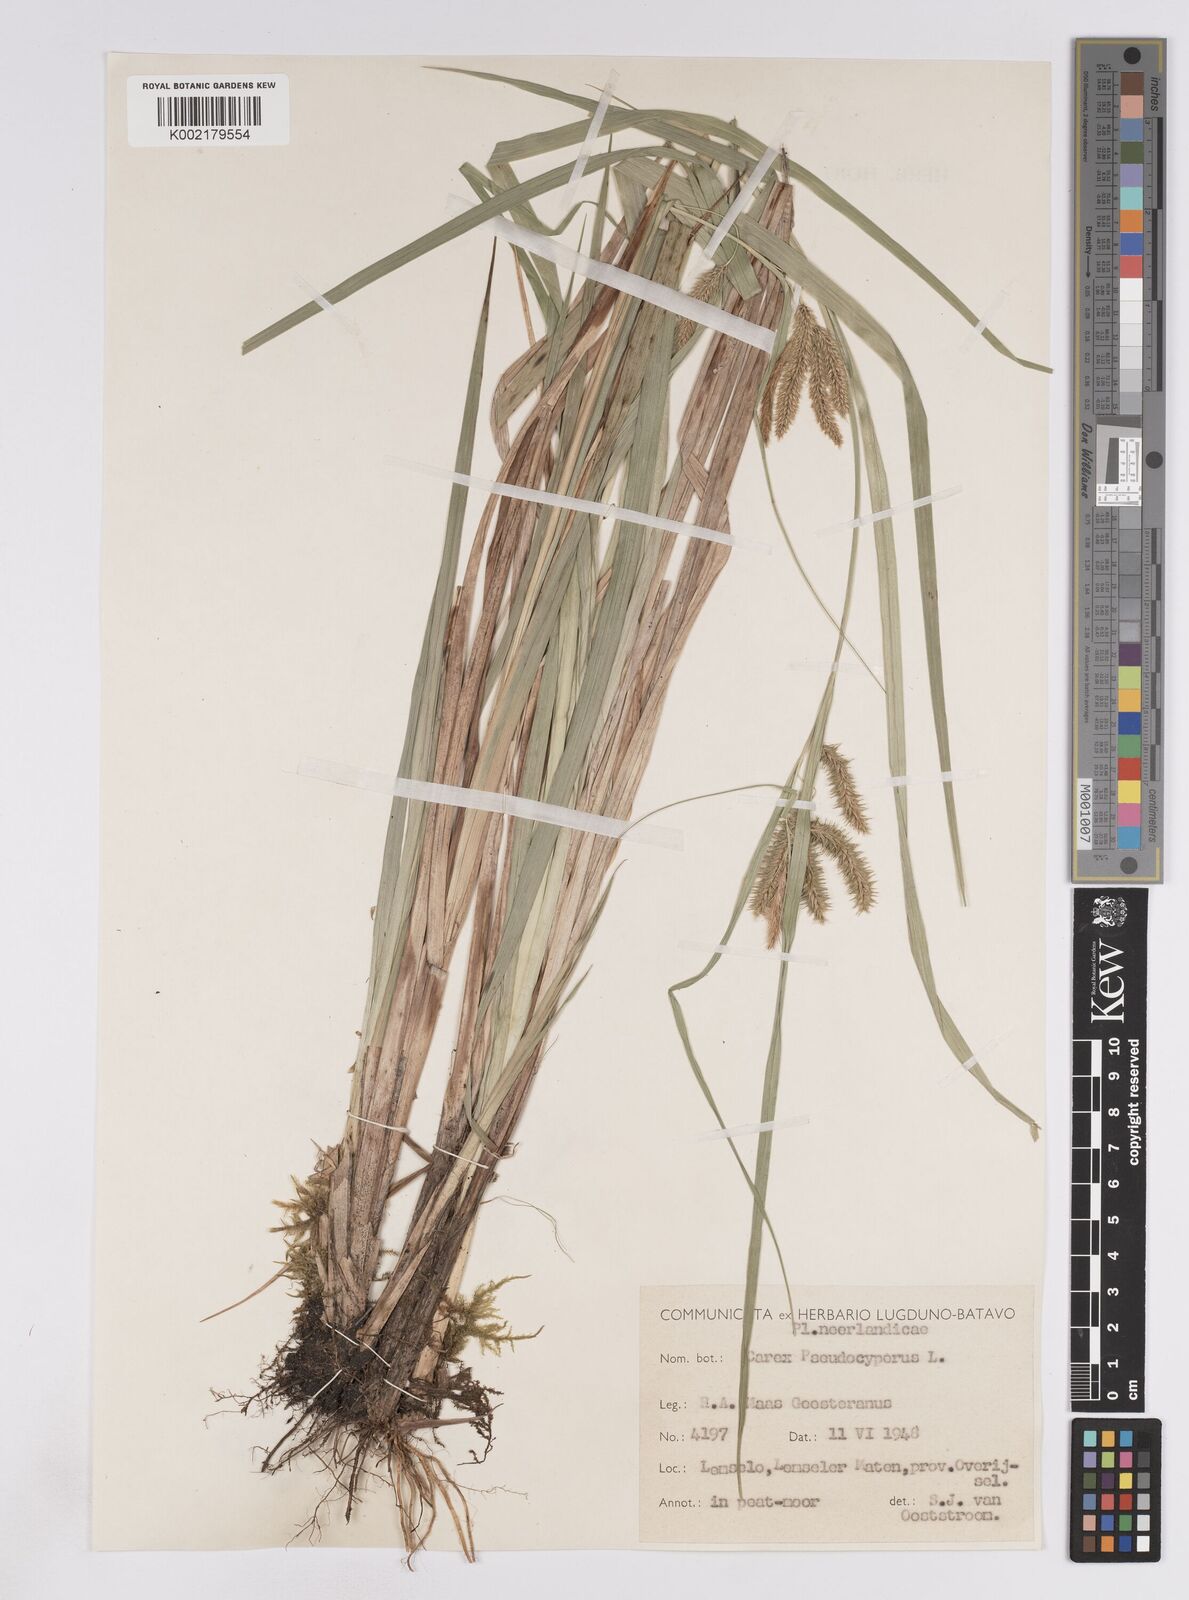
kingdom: Plantae
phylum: Tracheophyta
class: Liliopsida
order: Poales
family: Cyperaceae
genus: Carex
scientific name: Carex pseudocyperus
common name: Cyperus sedge
